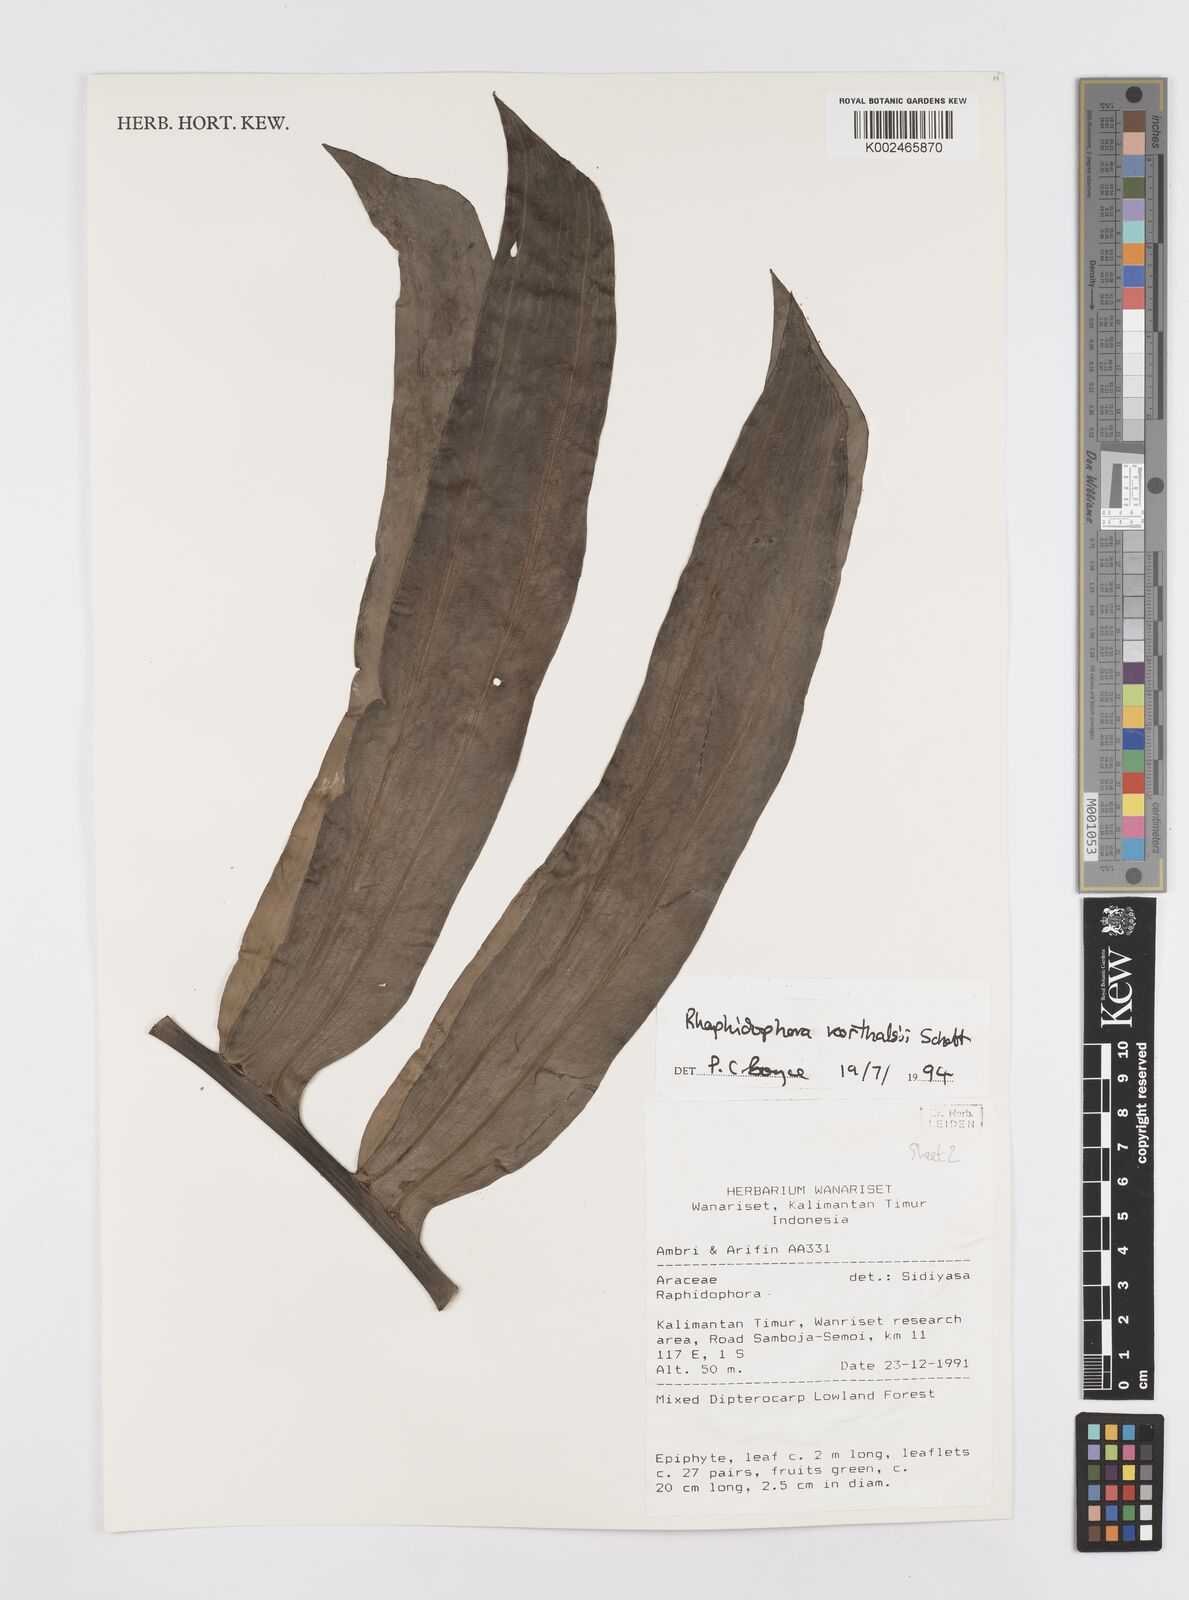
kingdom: Plantae
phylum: Tracheophyta
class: Liliopsida
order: Alismatales
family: Araceae
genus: Rhaphidophora
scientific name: Rhaphidophora korthalsii
